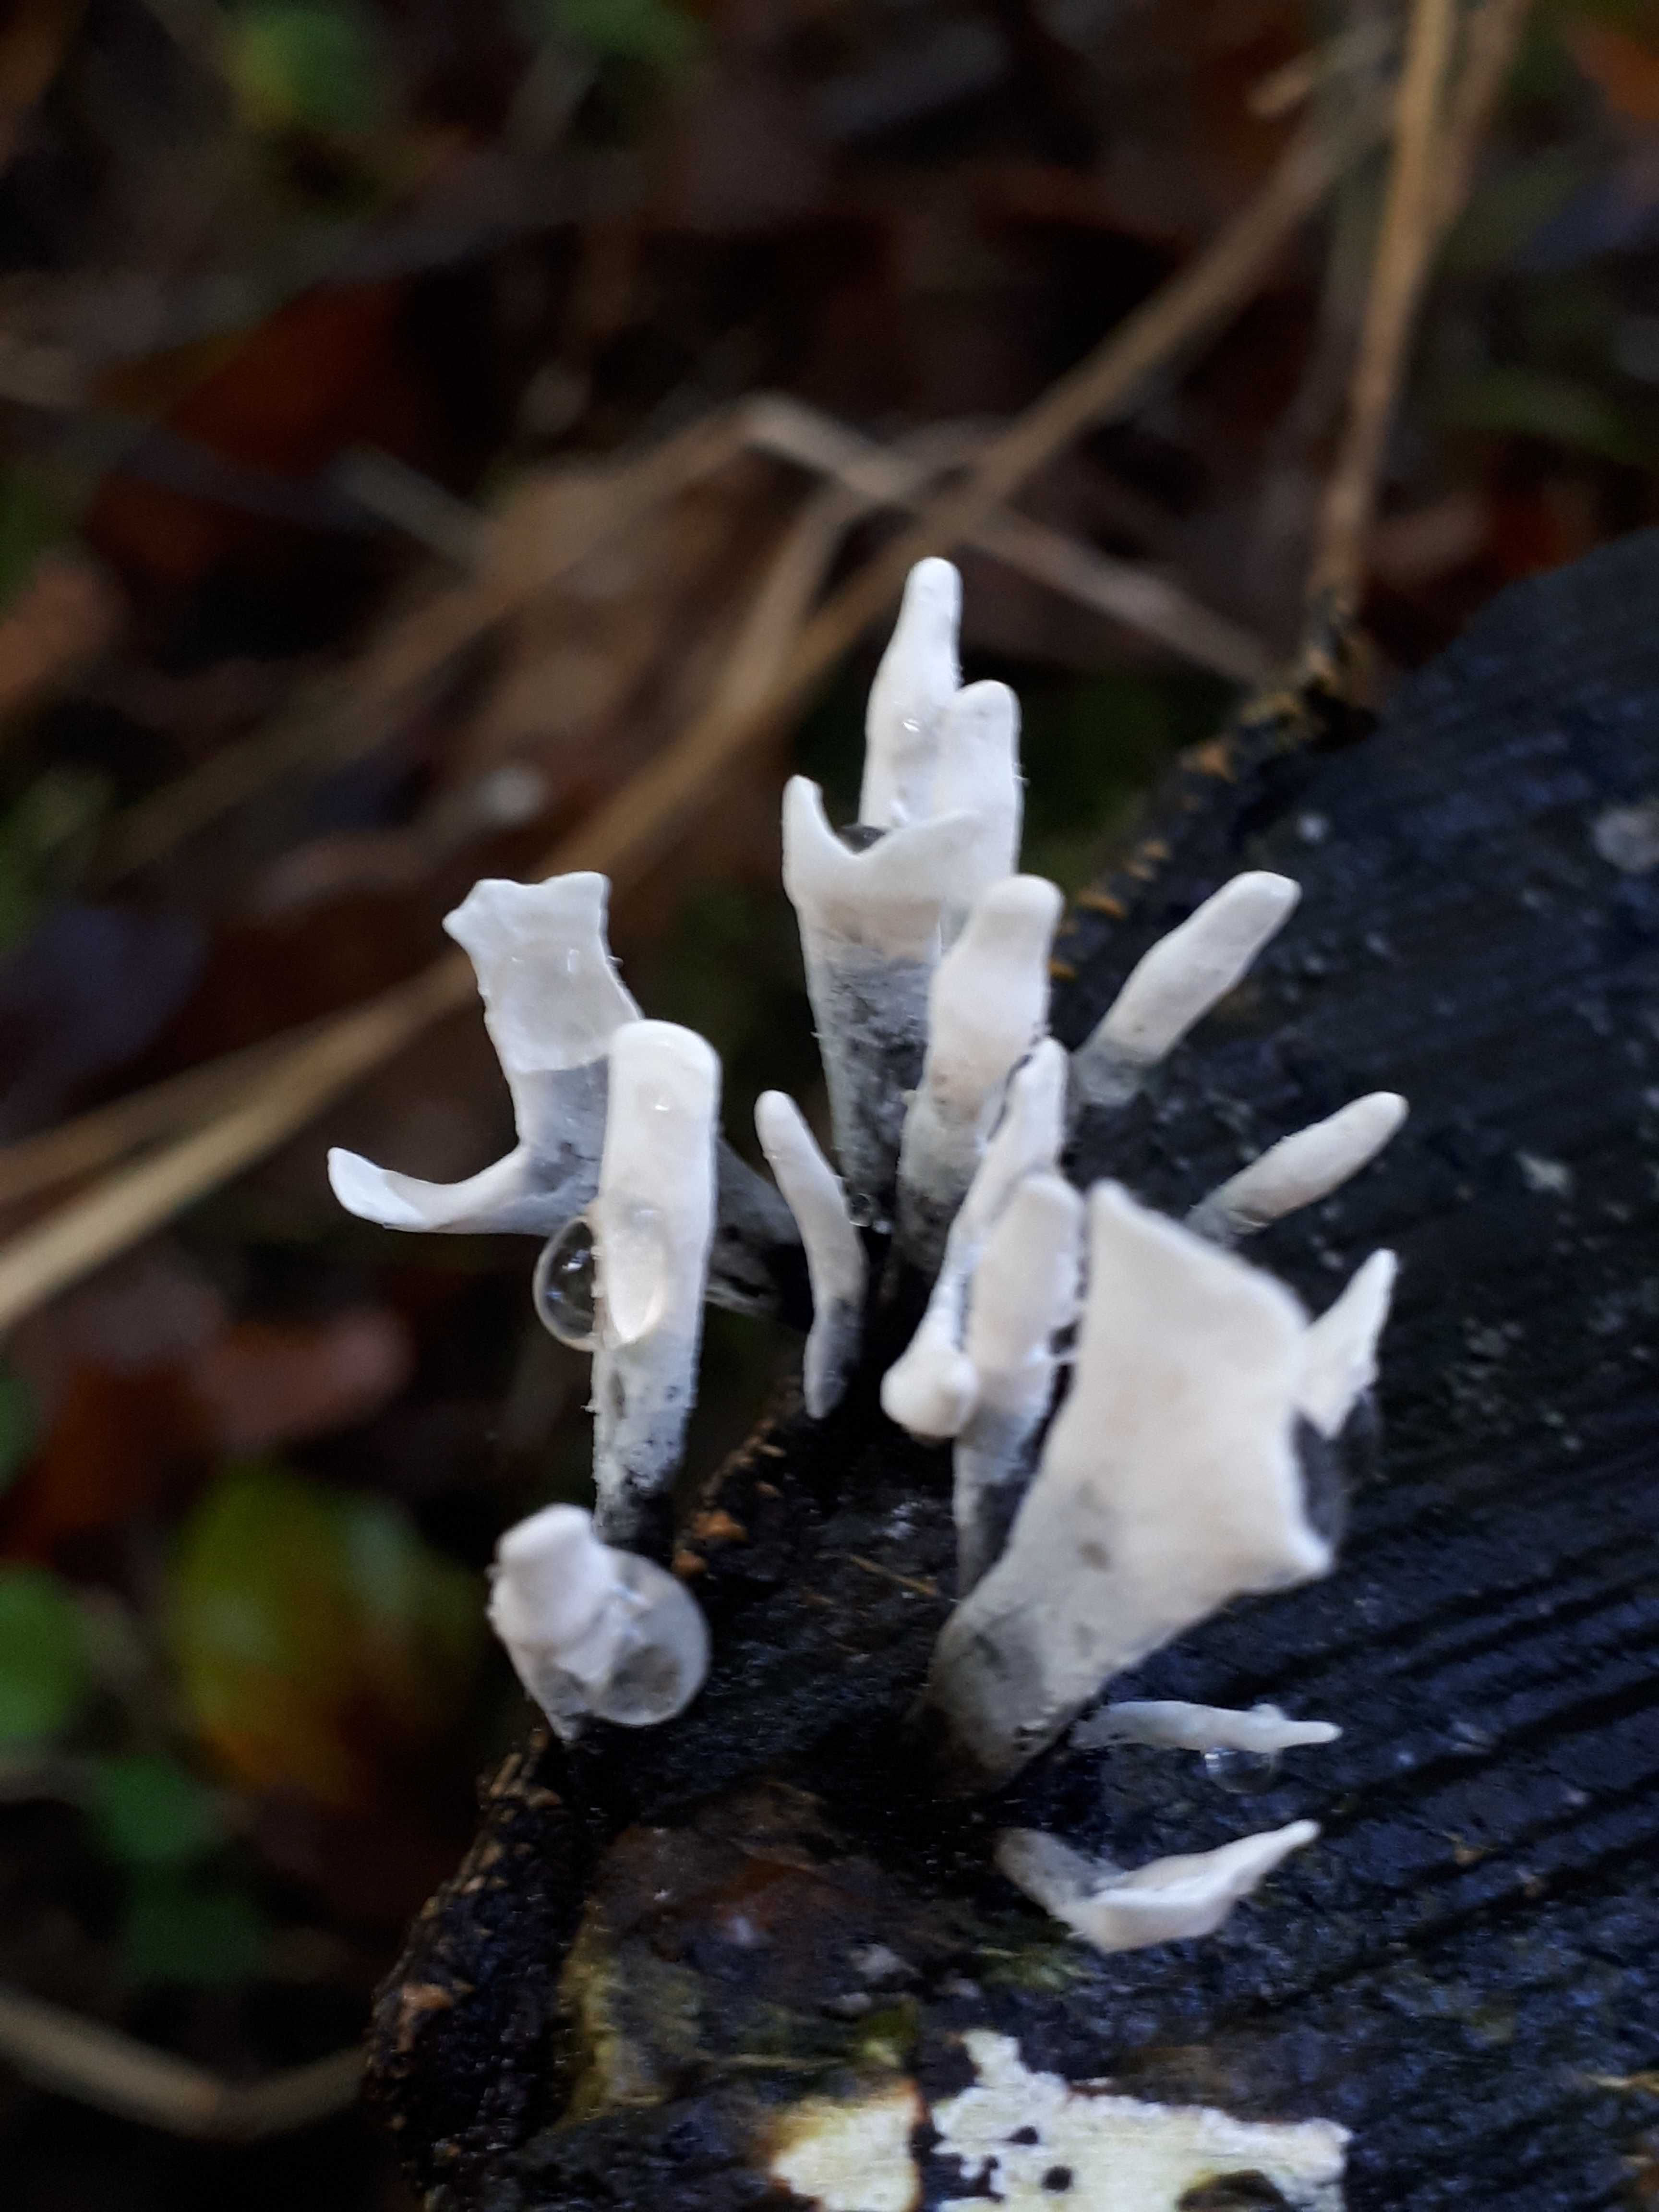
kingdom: Fungi
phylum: Ascomycota
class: Sordariomycetes
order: Xylariales
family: Xylariaceae
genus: Xylaria
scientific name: Xylaria hypoxylon
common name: grenet stødsvamp
